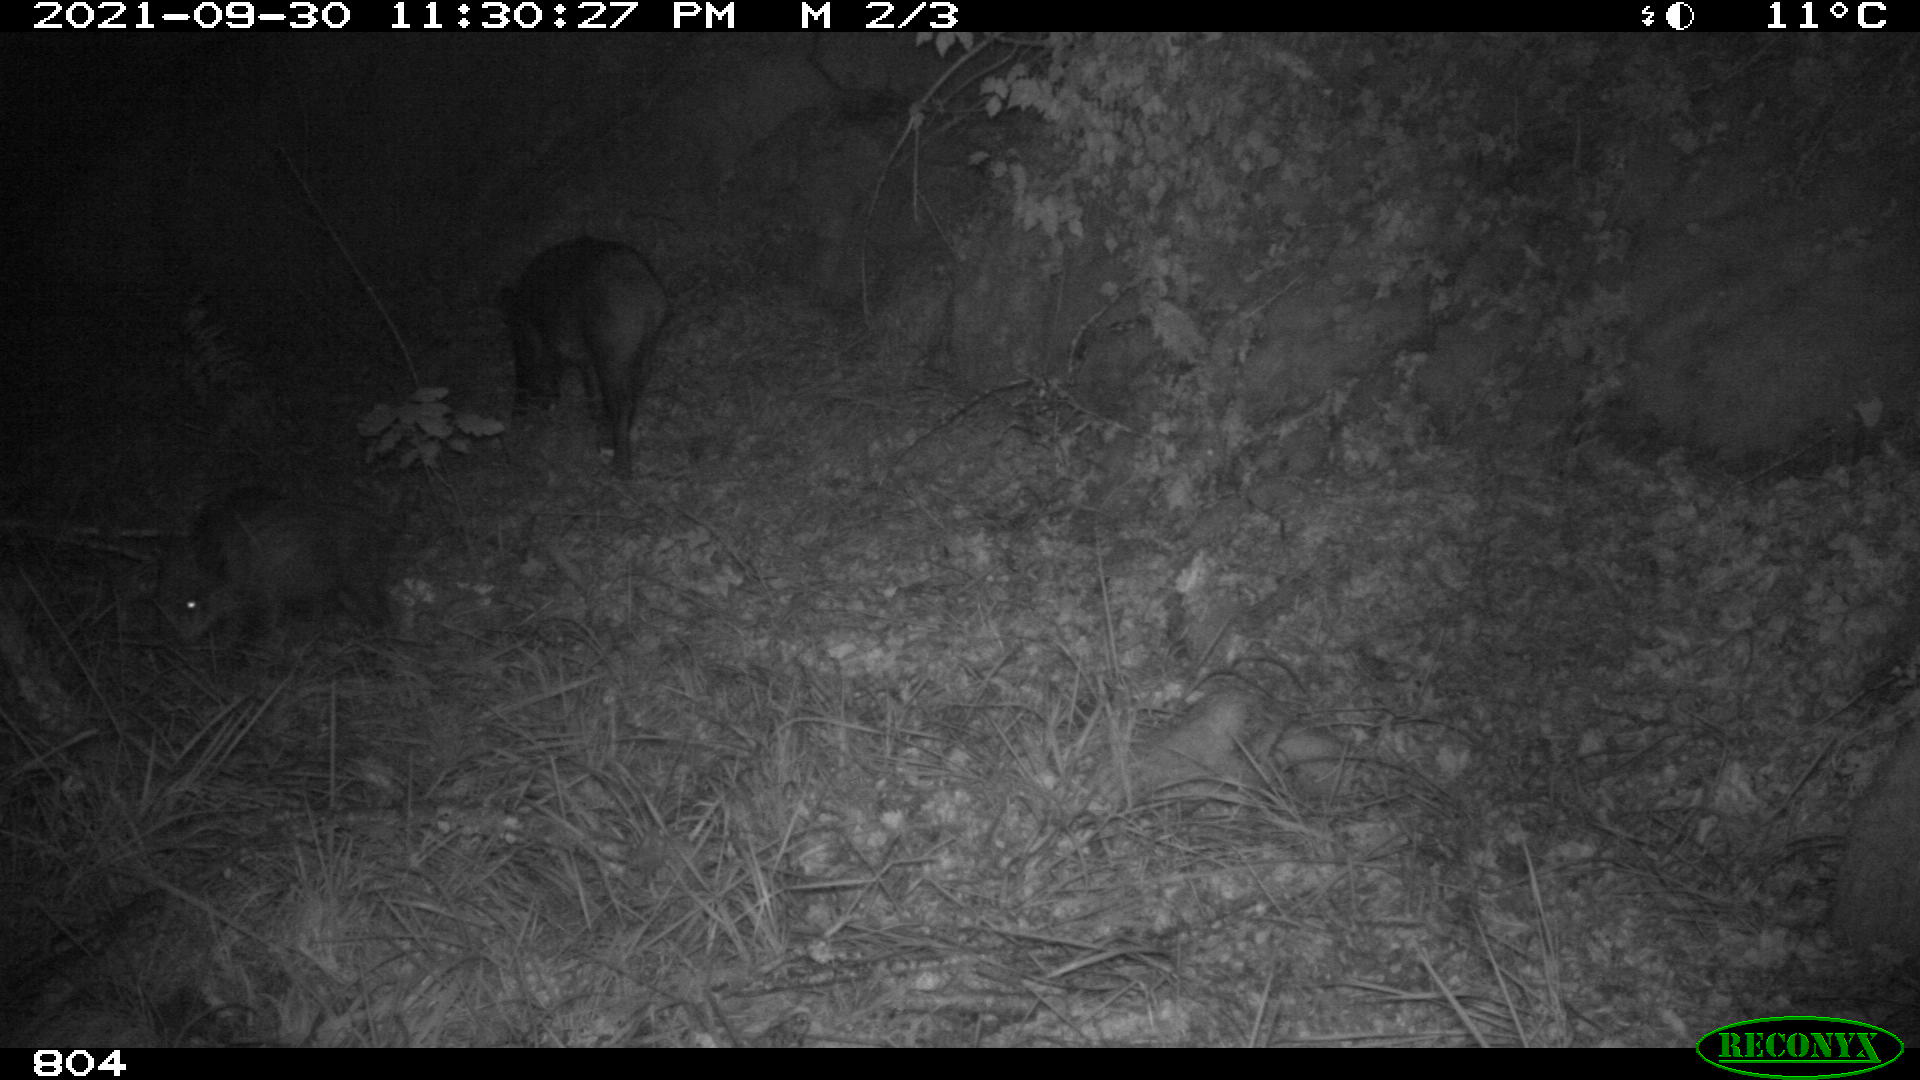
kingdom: Animalia
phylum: Chordata
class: Mammalia
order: Artiodactyla
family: Suidae
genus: Sus
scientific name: Sus scrofa
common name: Wild boar
